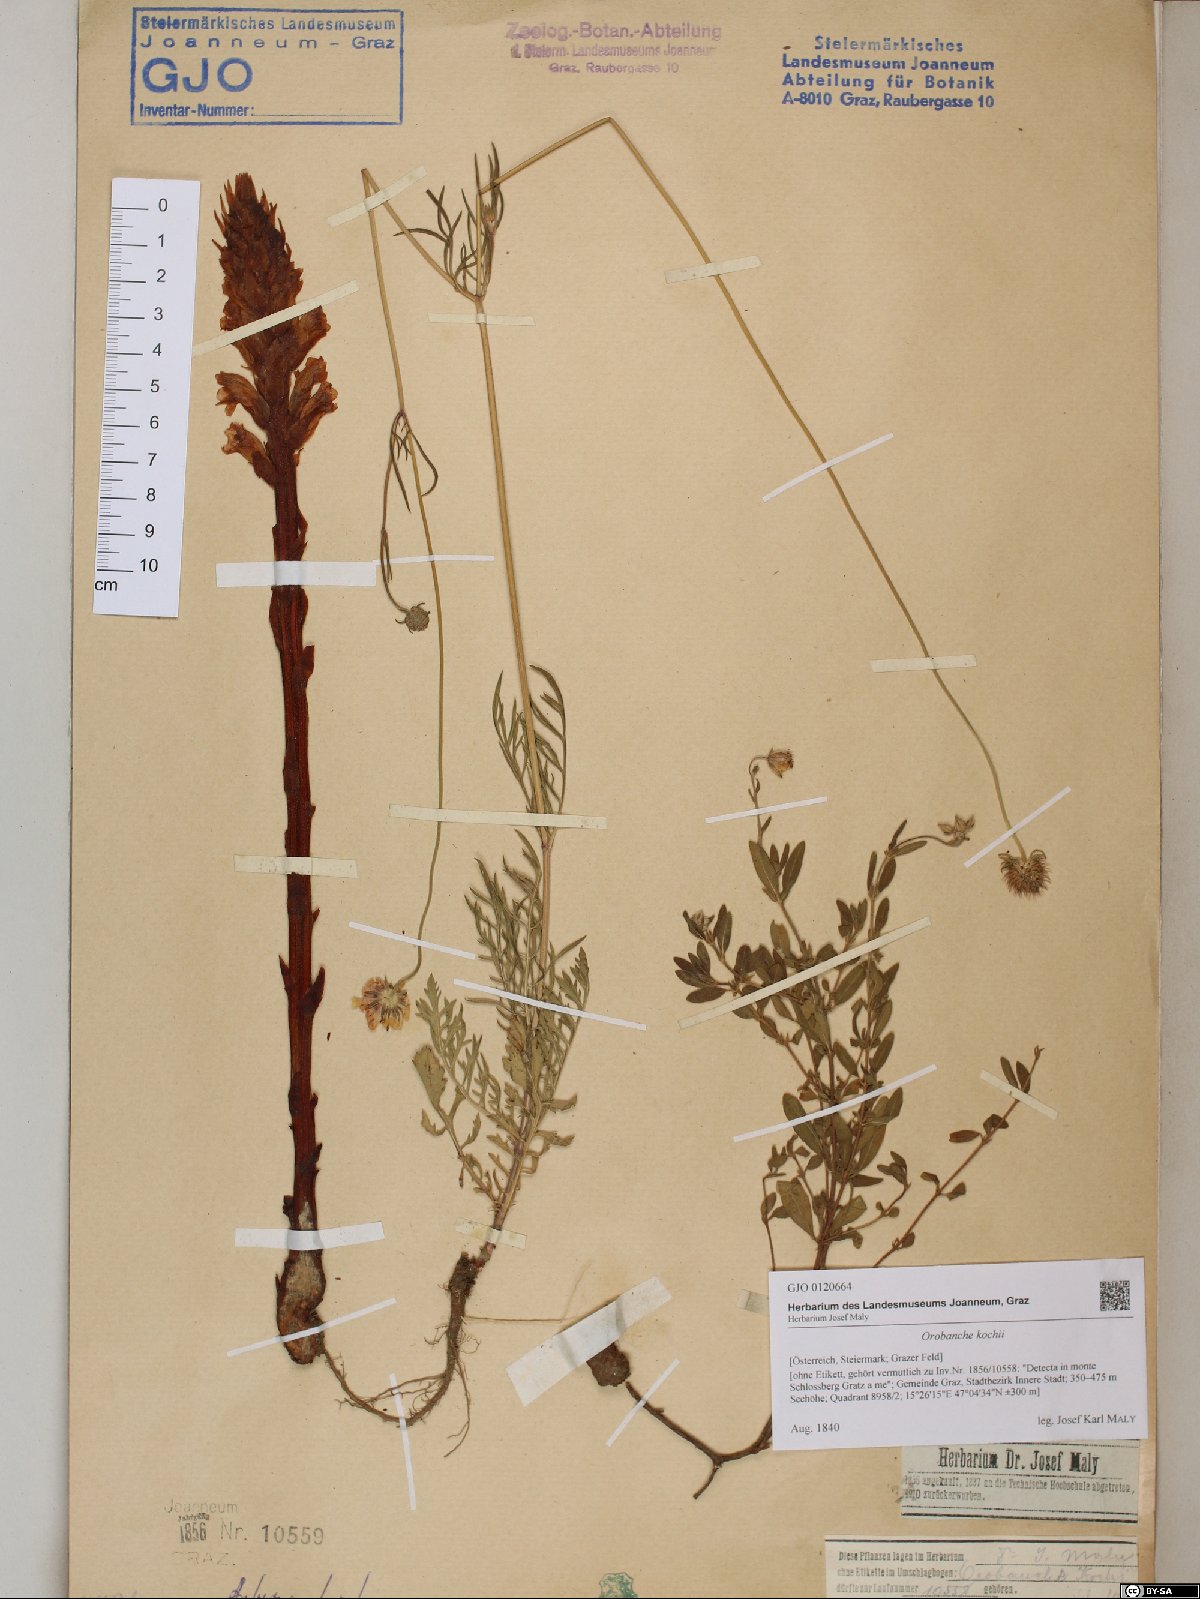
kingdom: Plantae
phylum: Tracheophyta
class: Magnoliopsida
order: Lamiales
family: Orobanchaceae
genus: Orobanche
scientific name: Orobanche centaurina
